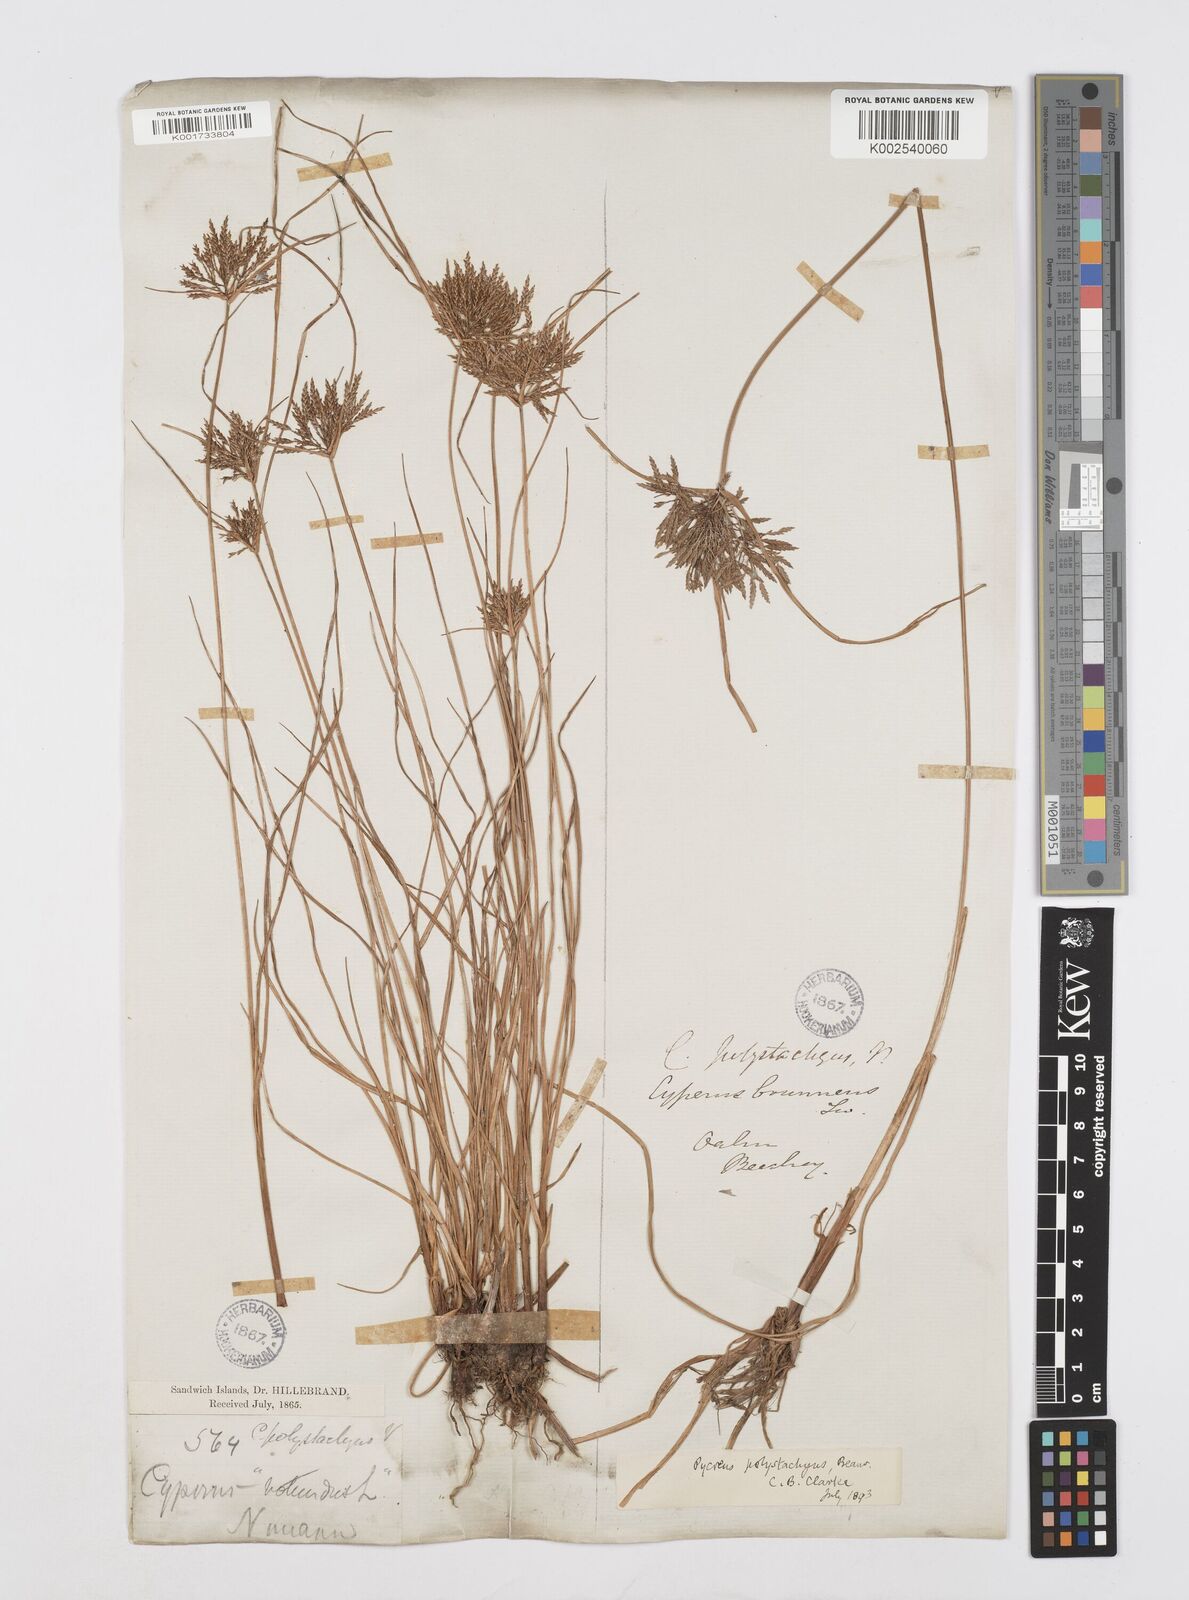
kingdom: Plantae
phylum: Tracheophyta
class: Liliopsida
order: Poales
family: Cyperaceae
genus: Cyperus
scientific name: Cyperus polystachyos
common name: Bunchy flat sedge
